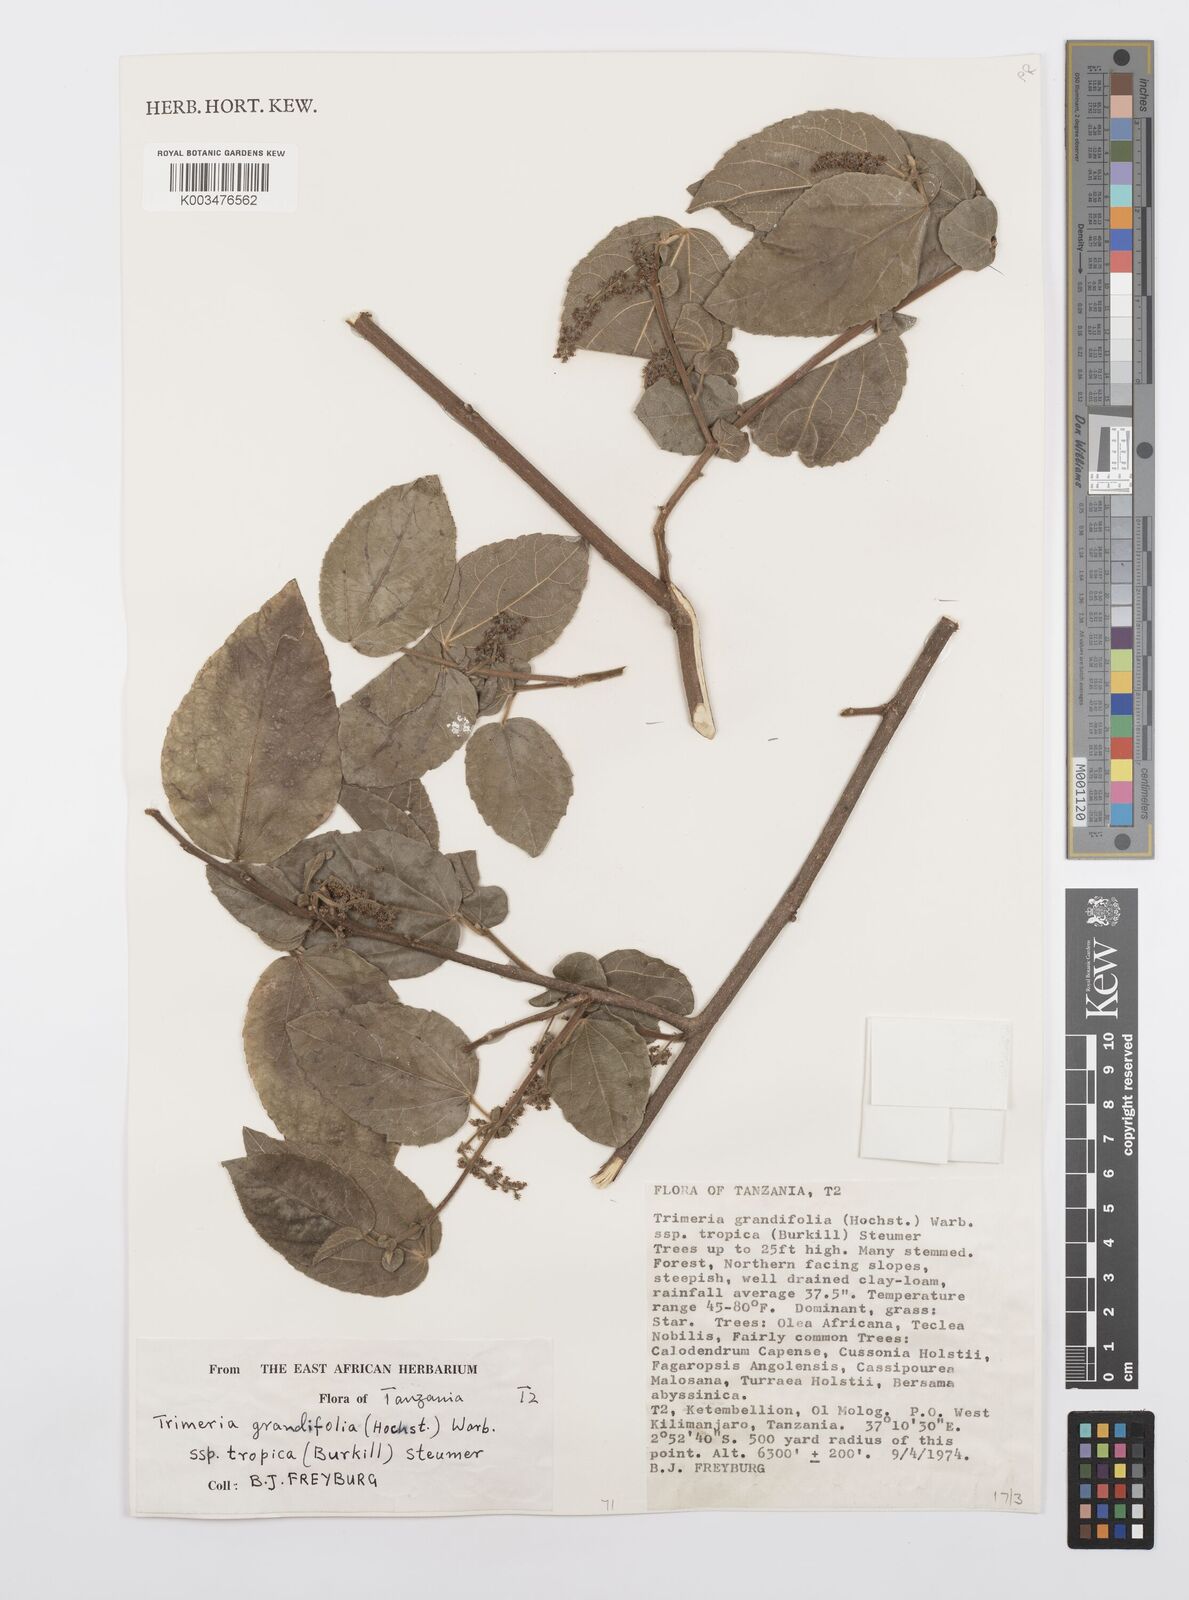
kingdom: Plantae
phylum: Tracheophyta
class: Magnoliopsida
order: Malpighiales
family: Salicaceae
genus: Trimeria
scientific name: Trimeria grandifolia
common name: Wild mulberry
